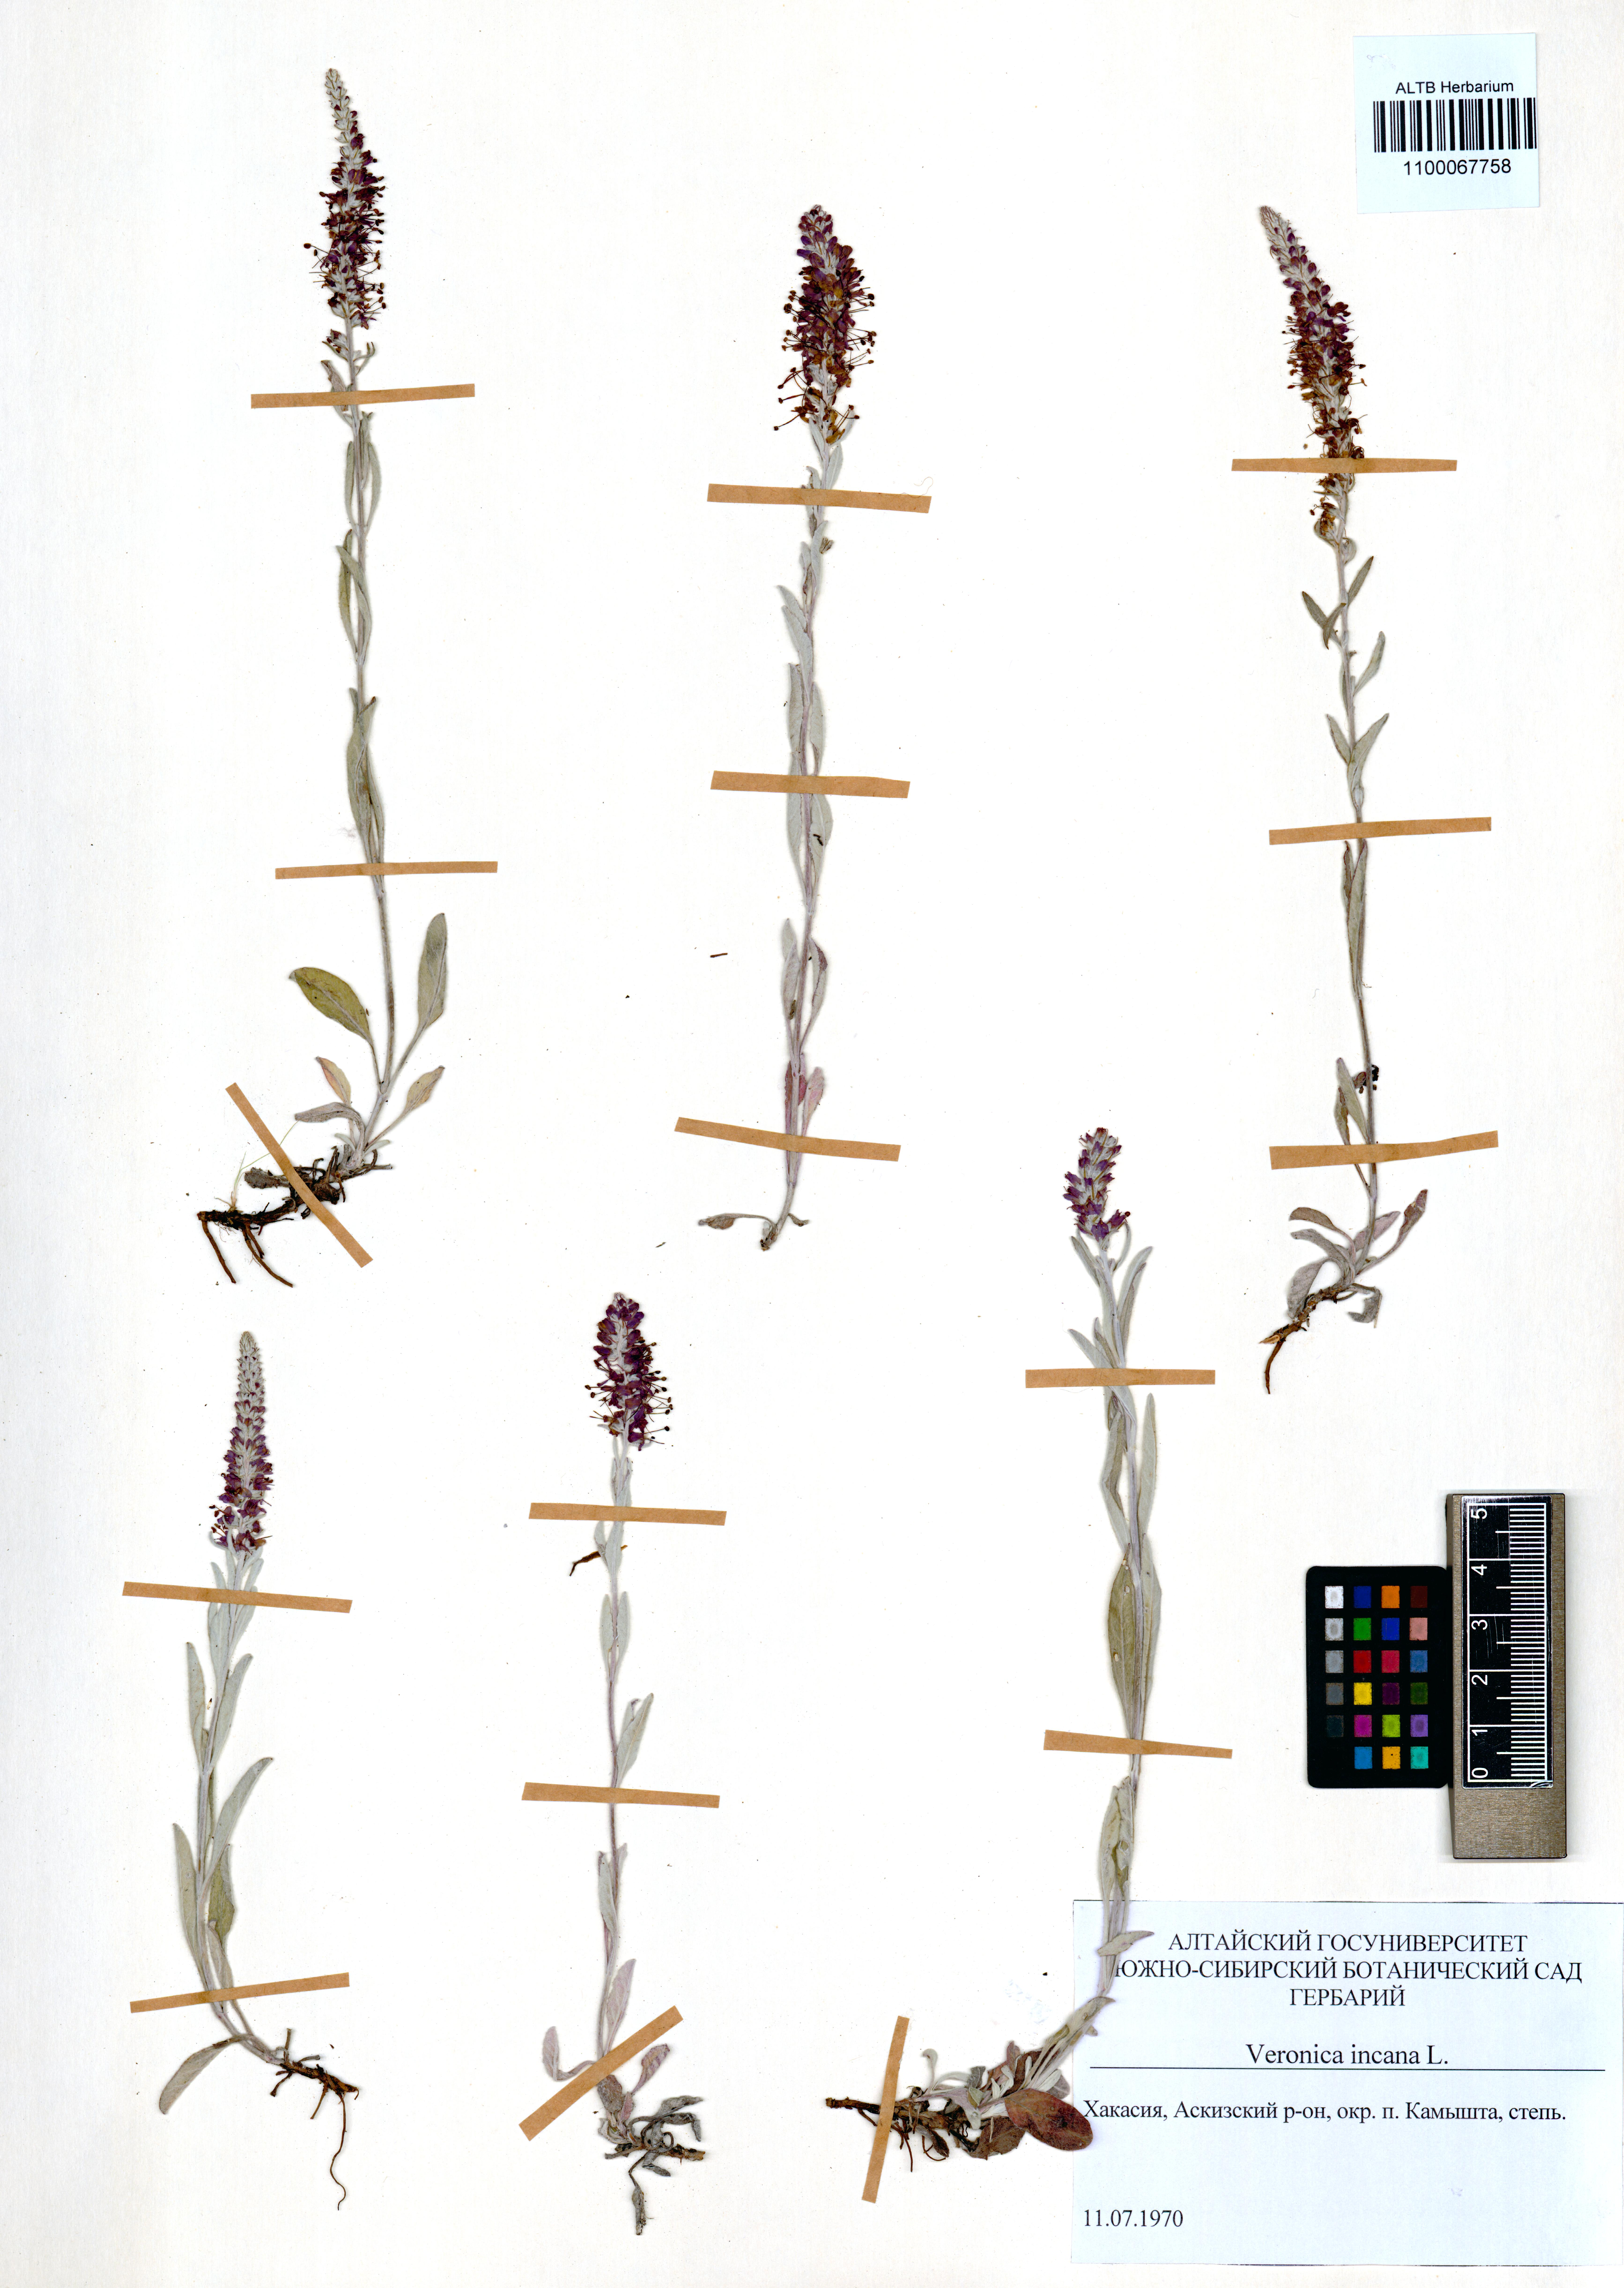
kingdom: Plantae
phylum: Tracheophyta
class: Magnoliopsida
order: Lamiales
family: Plantaginaceae
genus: Veronica
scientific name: Veronica incana
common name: Silver speedwell
